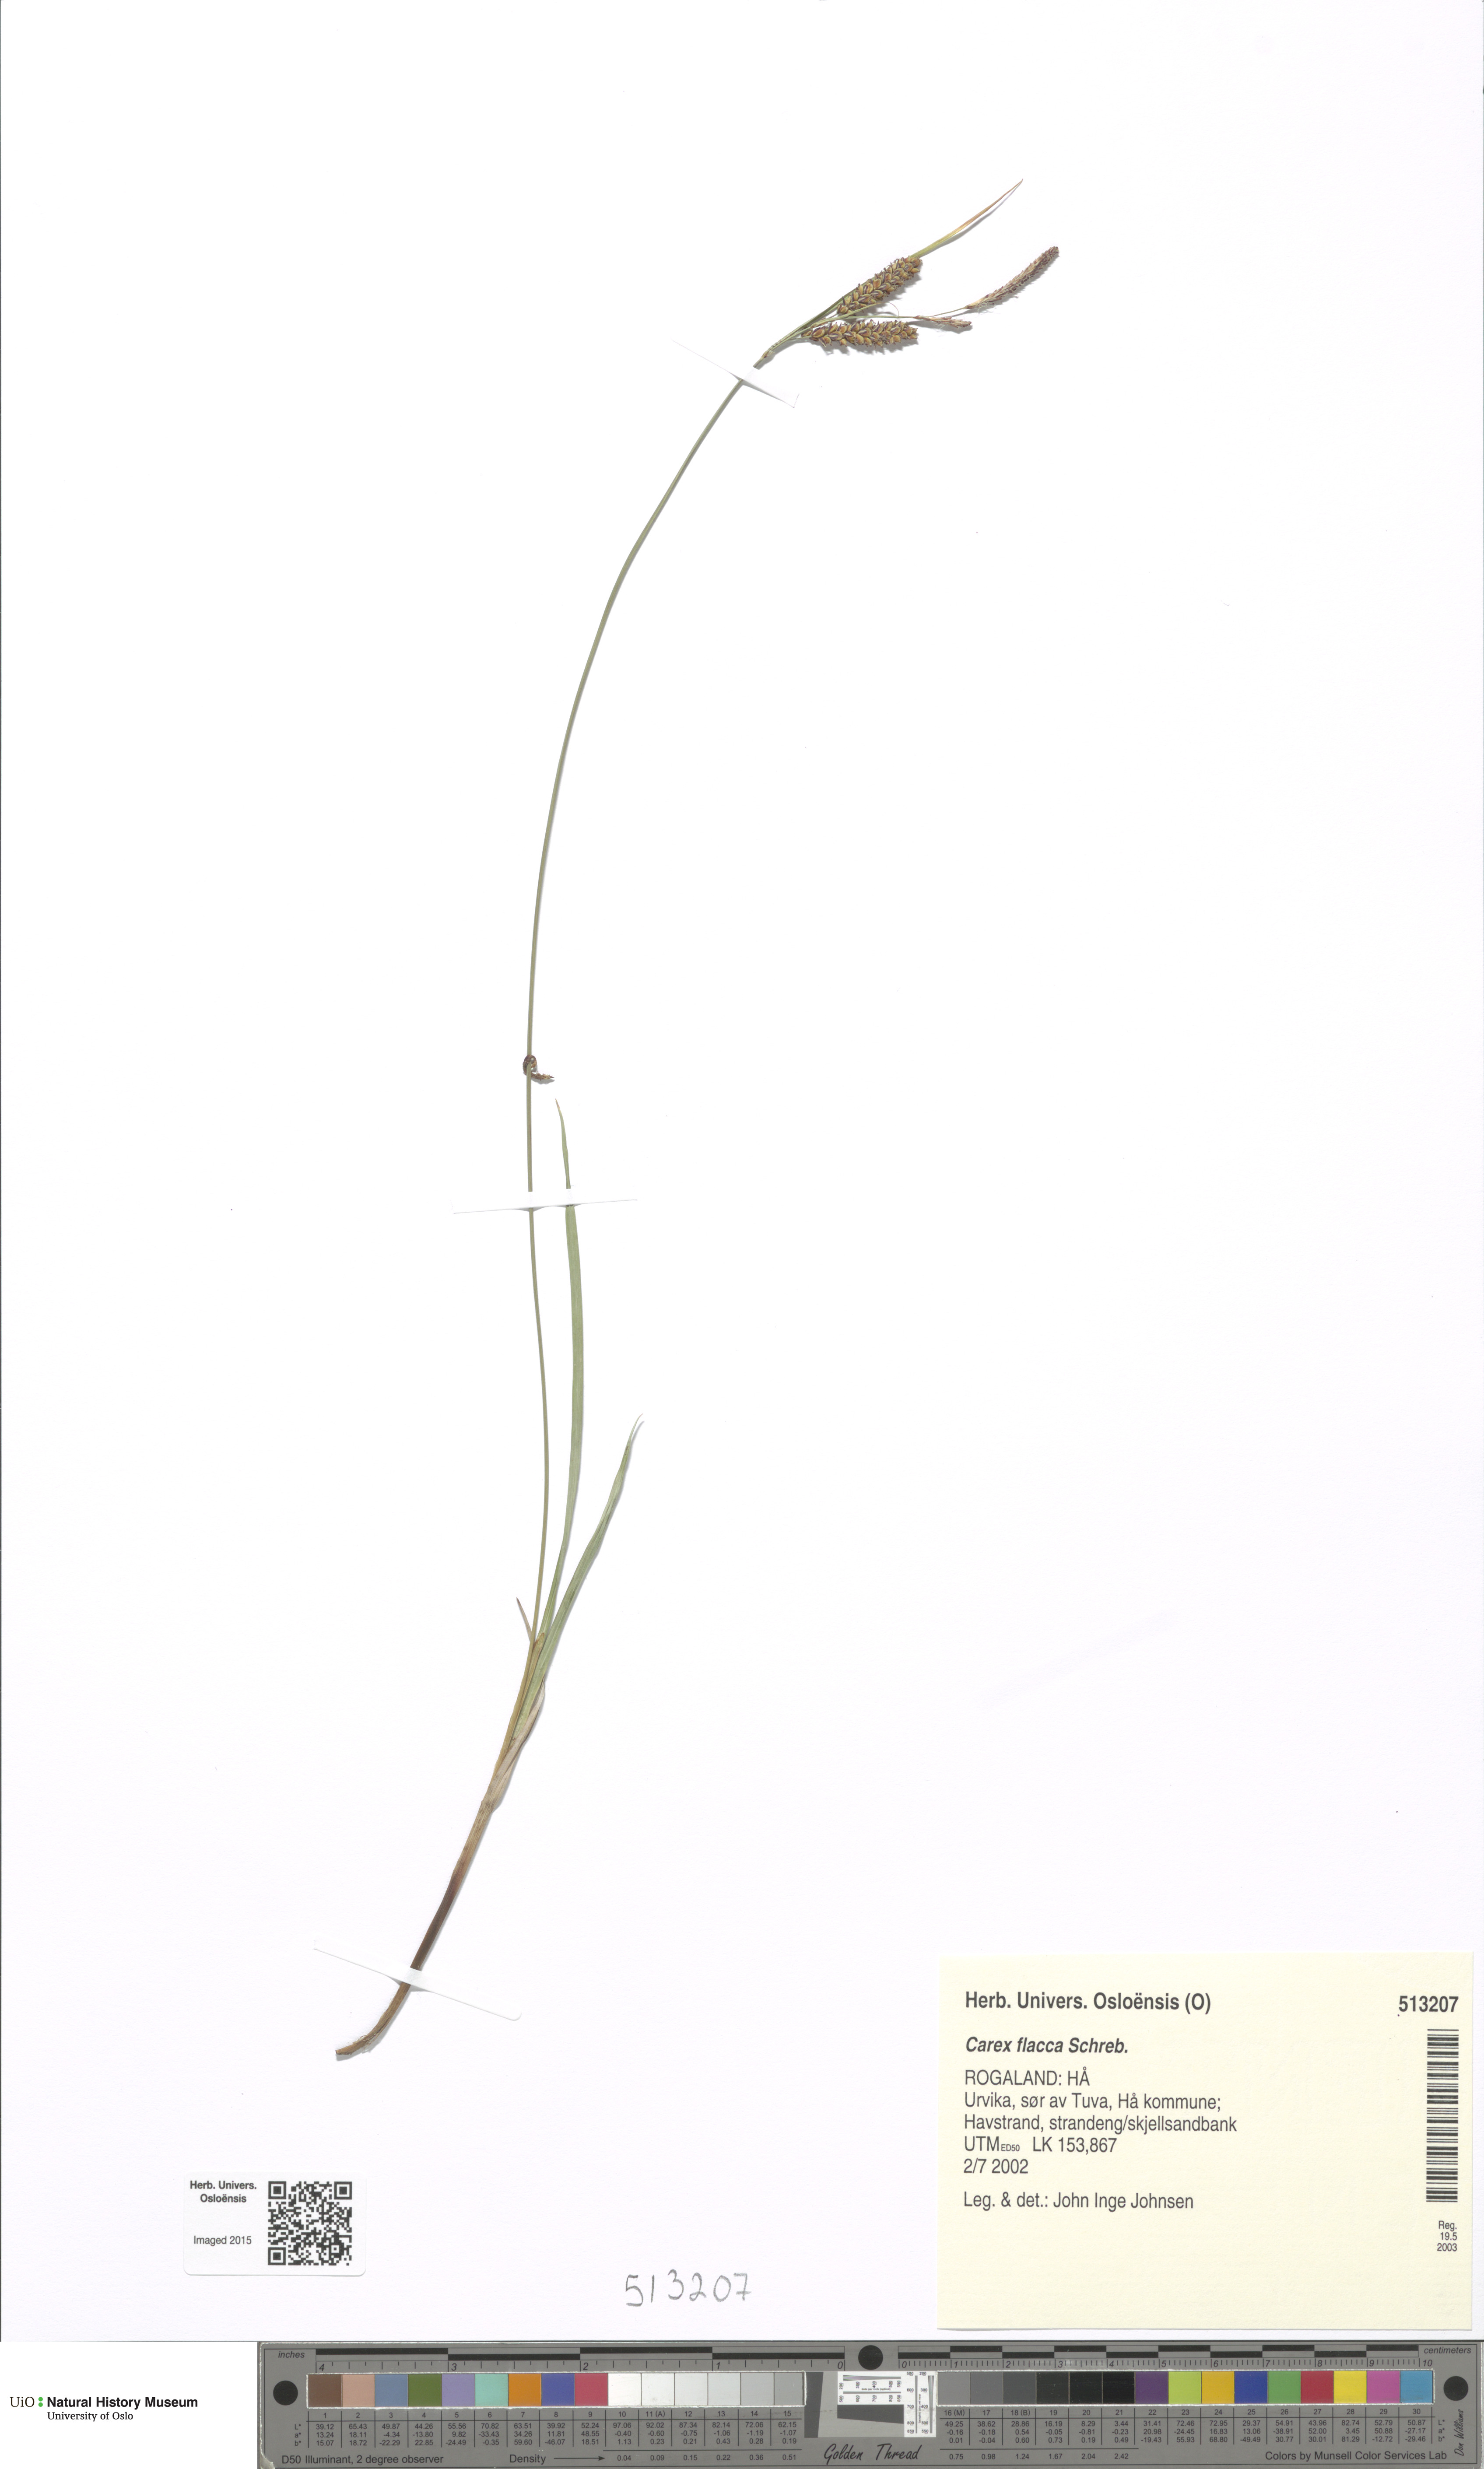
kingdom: Plantae
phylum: Tracheophyta
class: Liliopsida
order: Poales
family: Cyperaceae
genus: Carex
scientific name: Carex flacca
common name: Glaucous sedge
